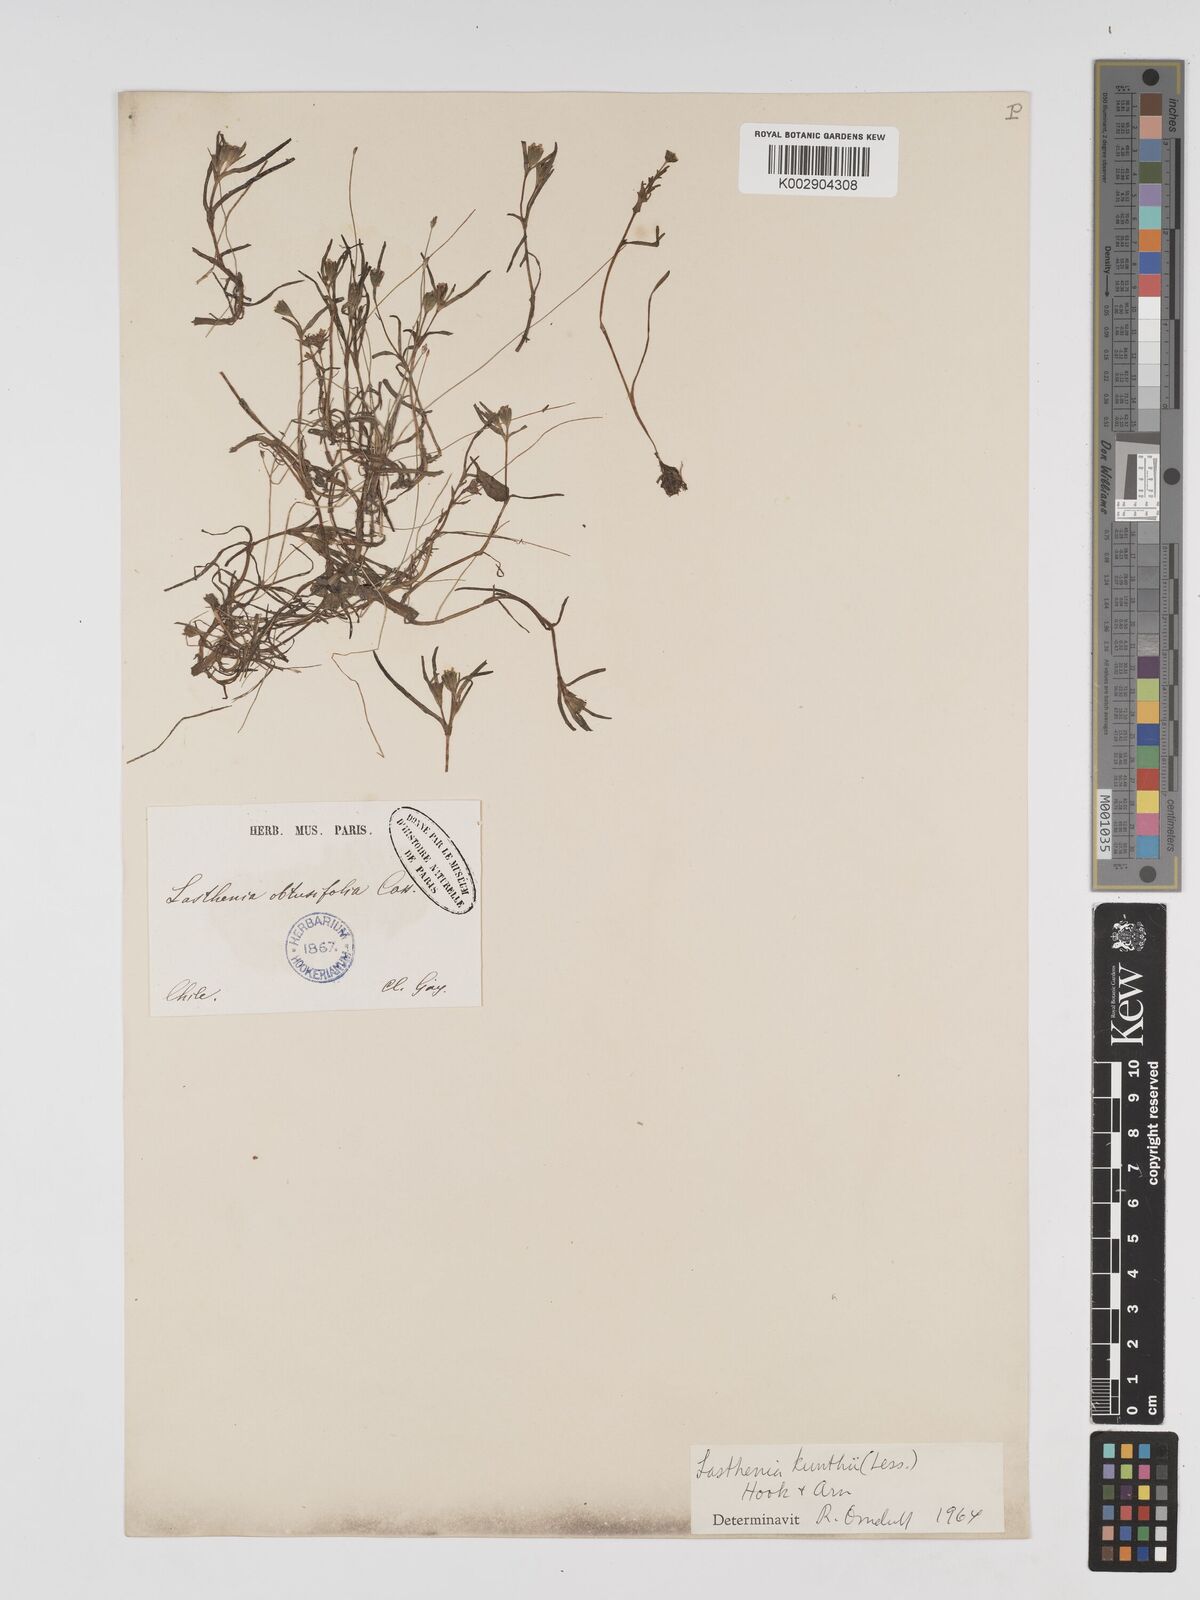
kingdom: Plantae
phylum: Tracheophyta
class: Magnoliopsida
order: Asterales
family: Asteraceae
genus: Lasthenia
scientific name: Lasthenia kunthii
